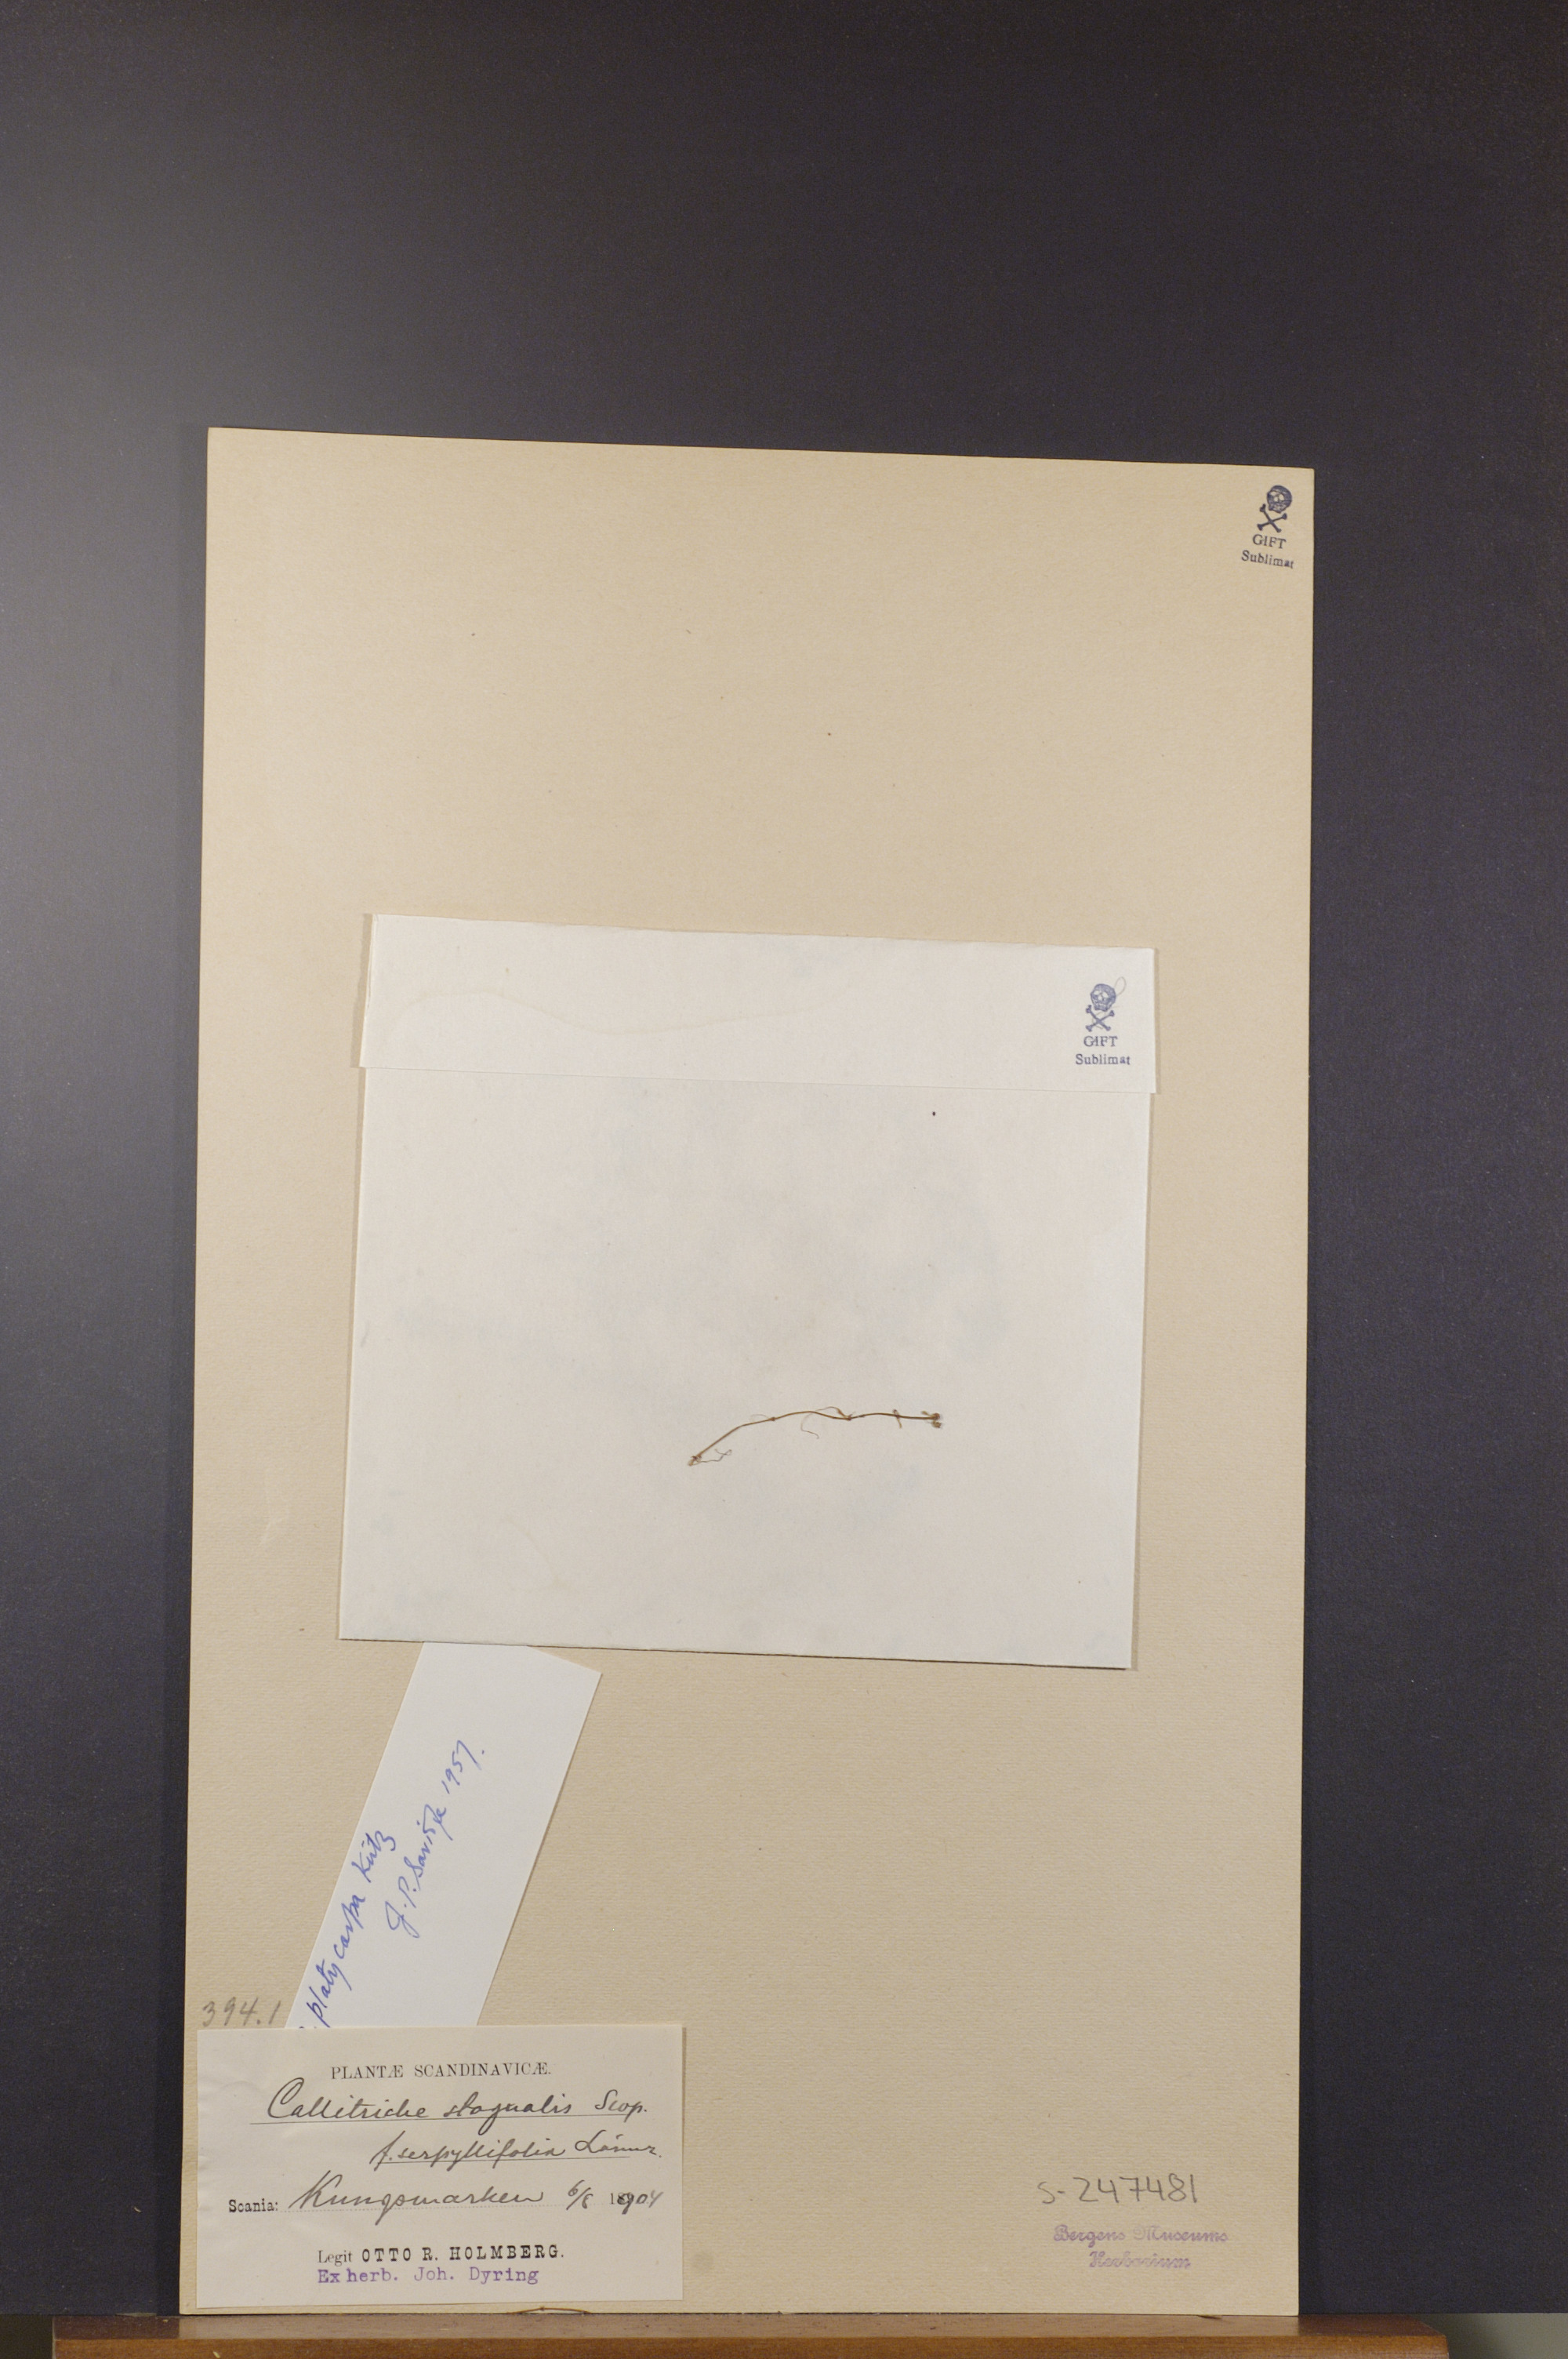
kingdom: Plantae
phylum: Tracheophyta
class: Magnoliopsida
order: Lamiales
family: Plantaginaceae
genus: Callitriche
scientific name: Callitriche platycarpa
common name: Various-leaved water-starwort
